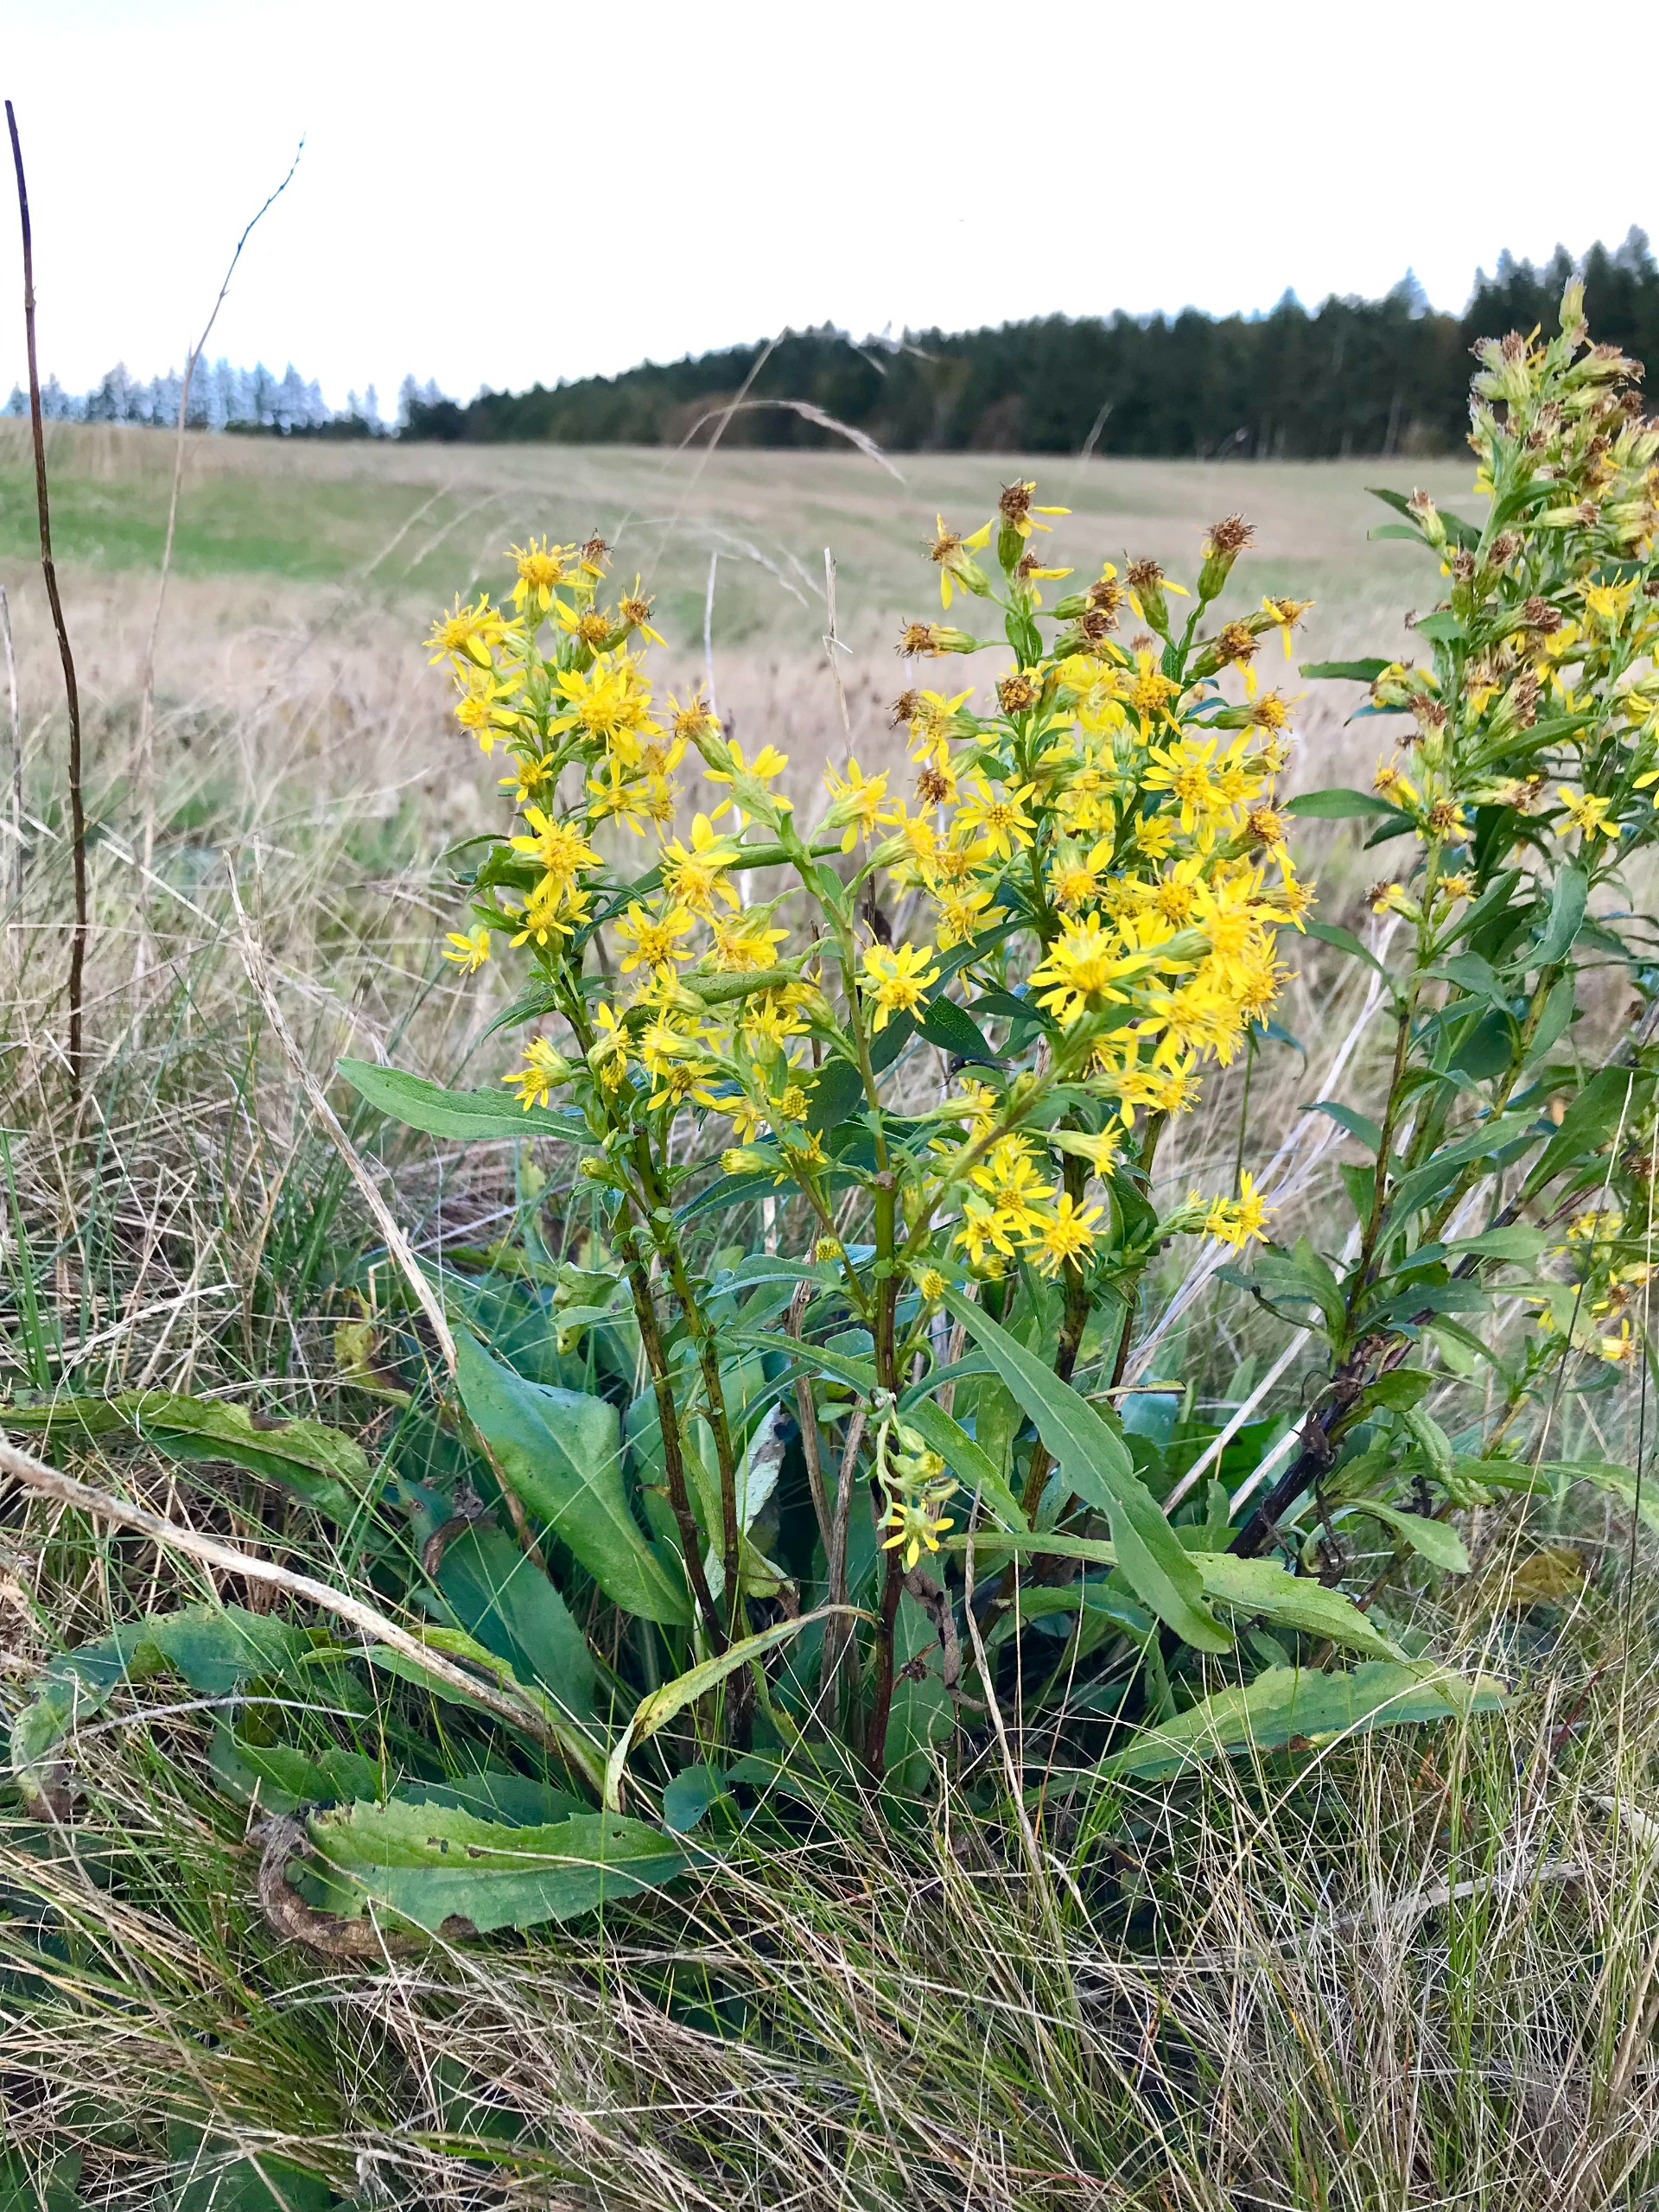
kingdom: Plantae
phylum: Tracheophyta
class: Magnoliopsida
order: Asterales
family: Asteraceae
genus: Solidago
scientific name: Solidago virgaurea
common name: Almindelig gyldenris
